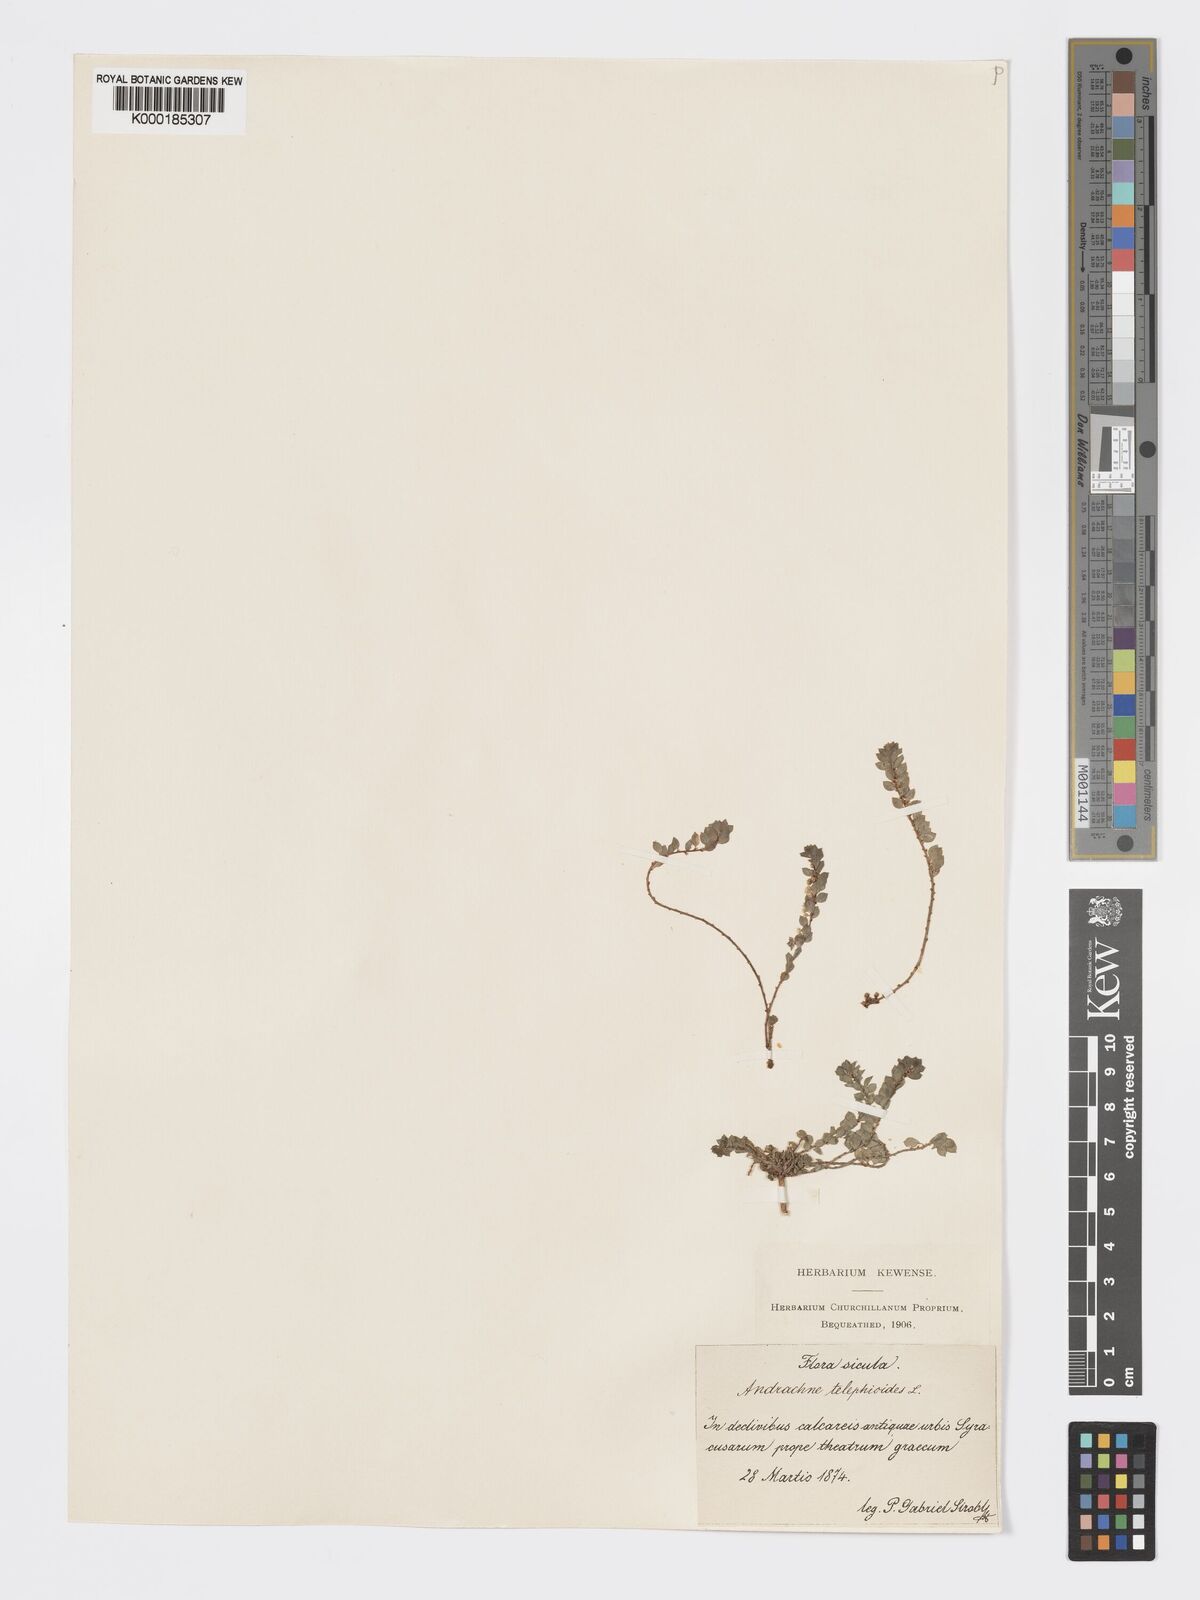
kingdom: Plantae
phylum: Tracheophyta
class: Magnoliopsida
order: Malpighiales
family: Phyllanthaceae
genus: Andrachne
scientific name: Andrachne telephioides
